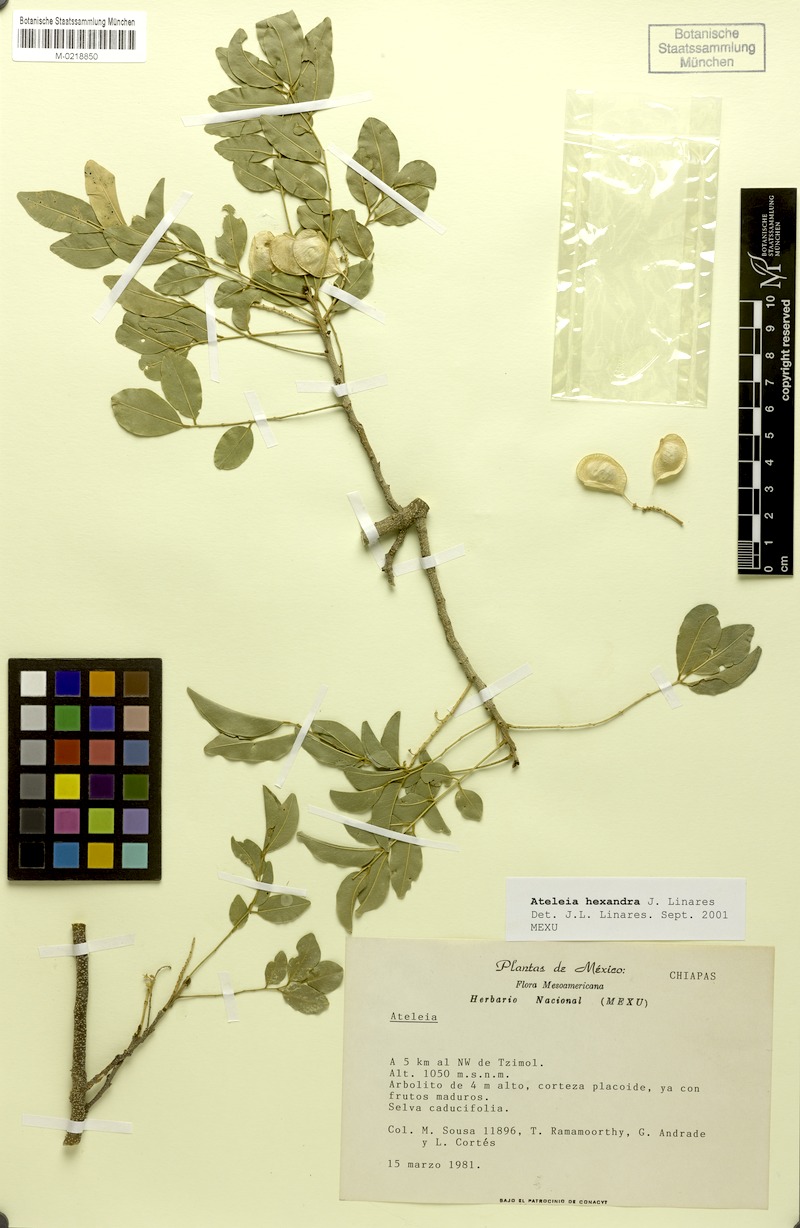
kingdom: Plantae
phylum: Tracheophyta
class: Magnoliopsida
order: Fabales
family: Fabaceae
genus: Ateleia
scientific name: Ateleia hexandra
